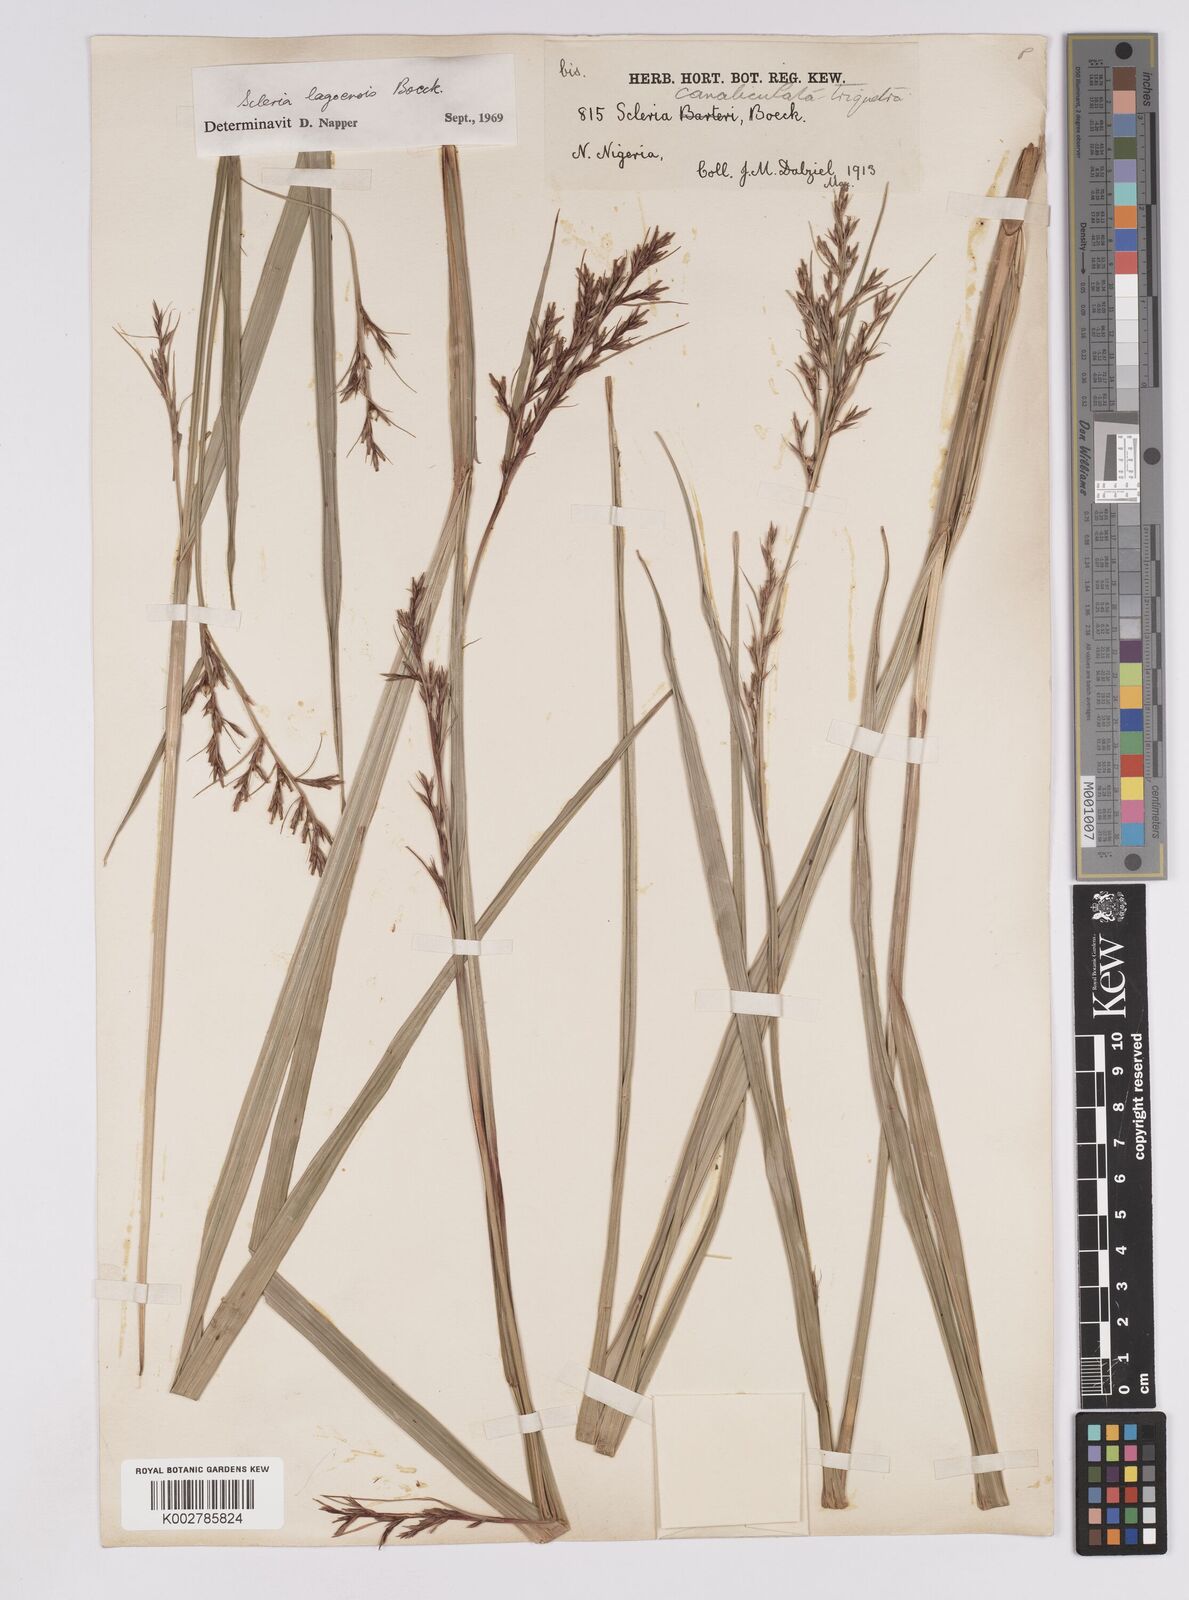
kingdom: Plantae
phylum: Tracheophyta
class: Liliopsida
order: Poales
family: Cyperaceae
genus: Scleria
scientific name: Scleria lagoensis
